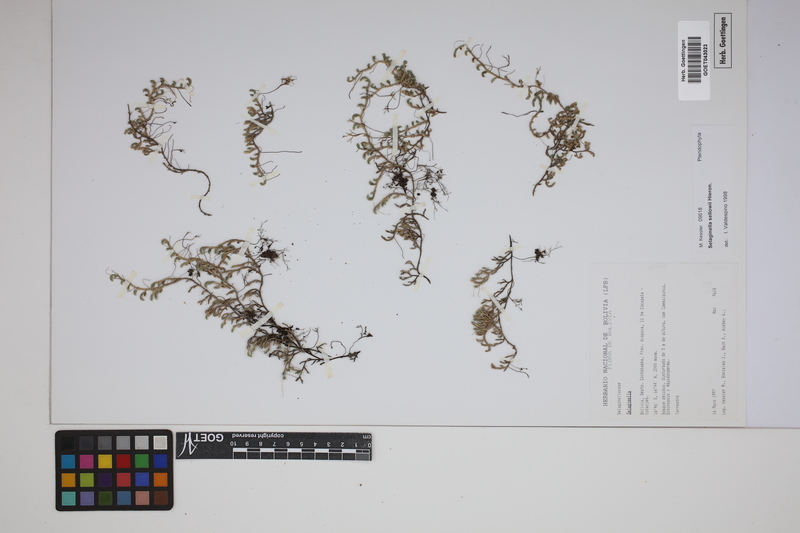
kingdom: Plantae
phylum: Tracheophyta
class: Lycopodiopsida
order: Selaginellales
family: Selaginellaceae
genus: Selaginella
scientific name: Selaginella sellowii
